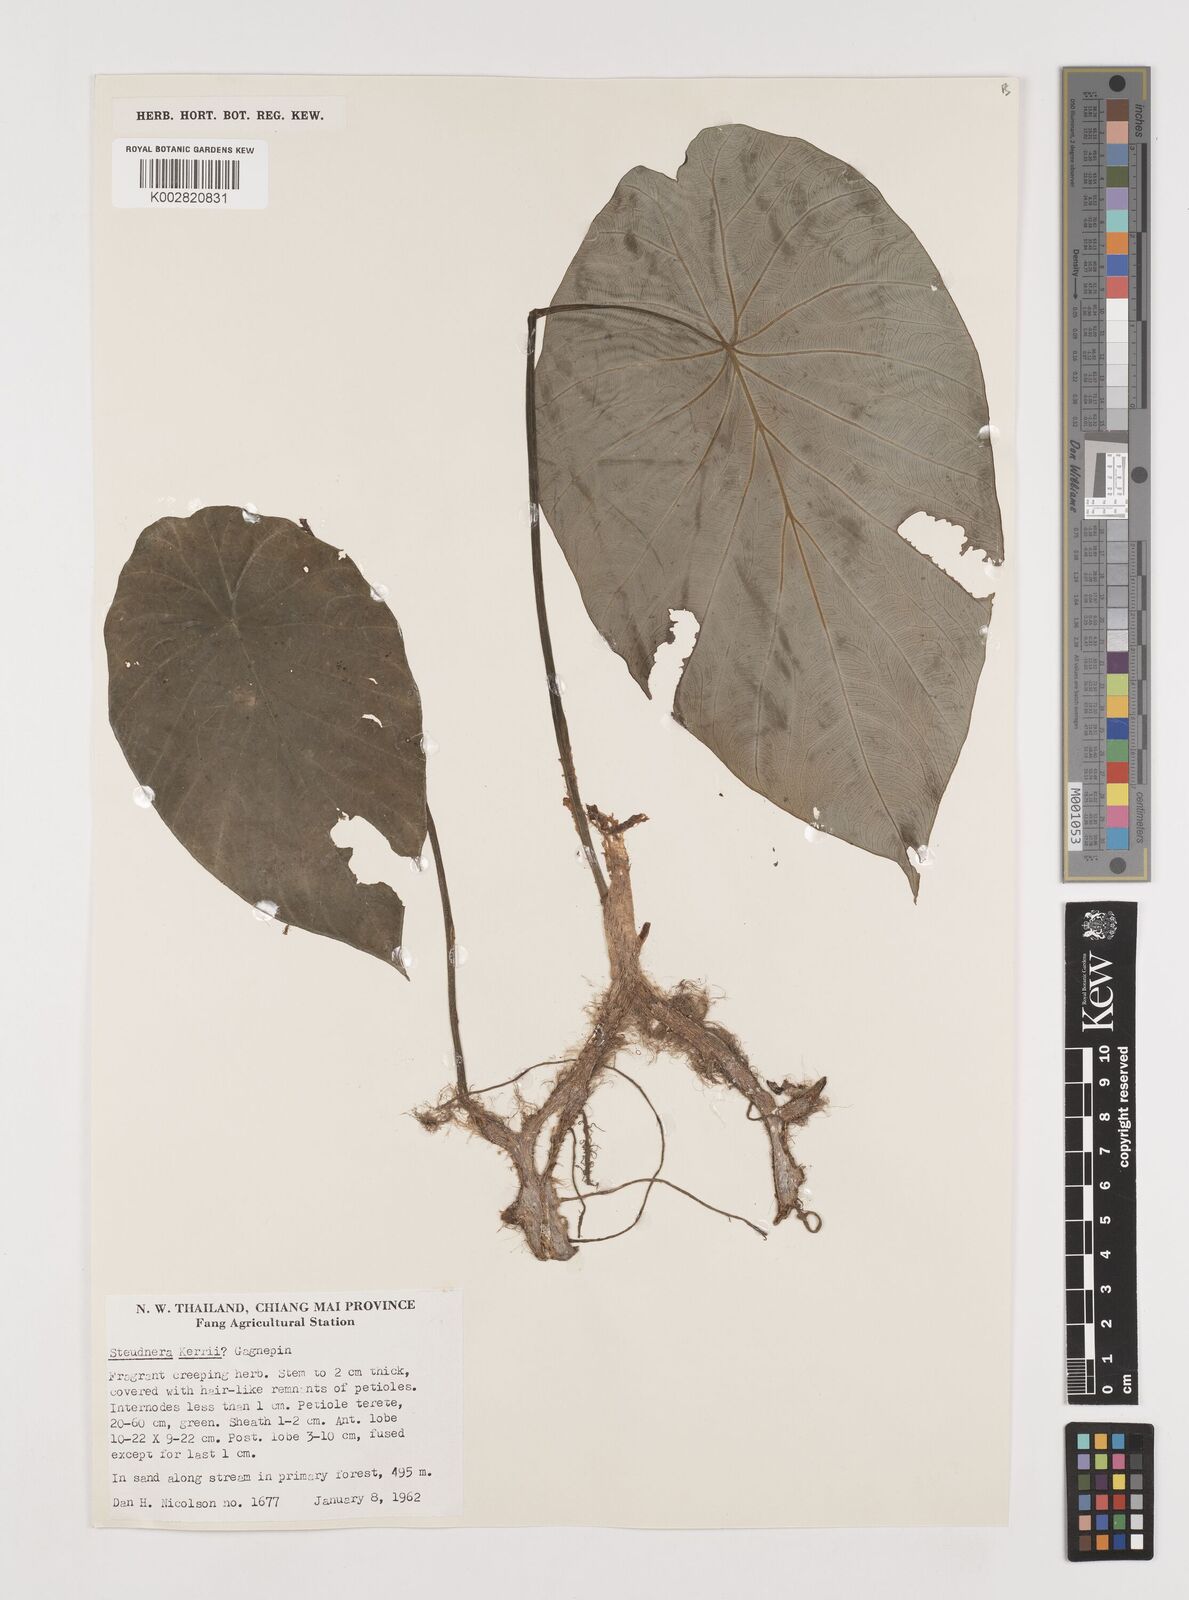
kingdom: Plantae
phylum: Tracheophyta
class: Liliopsida
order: Alismatales
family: Araceae
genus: Steudnera
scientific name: Steudnera kerrii
